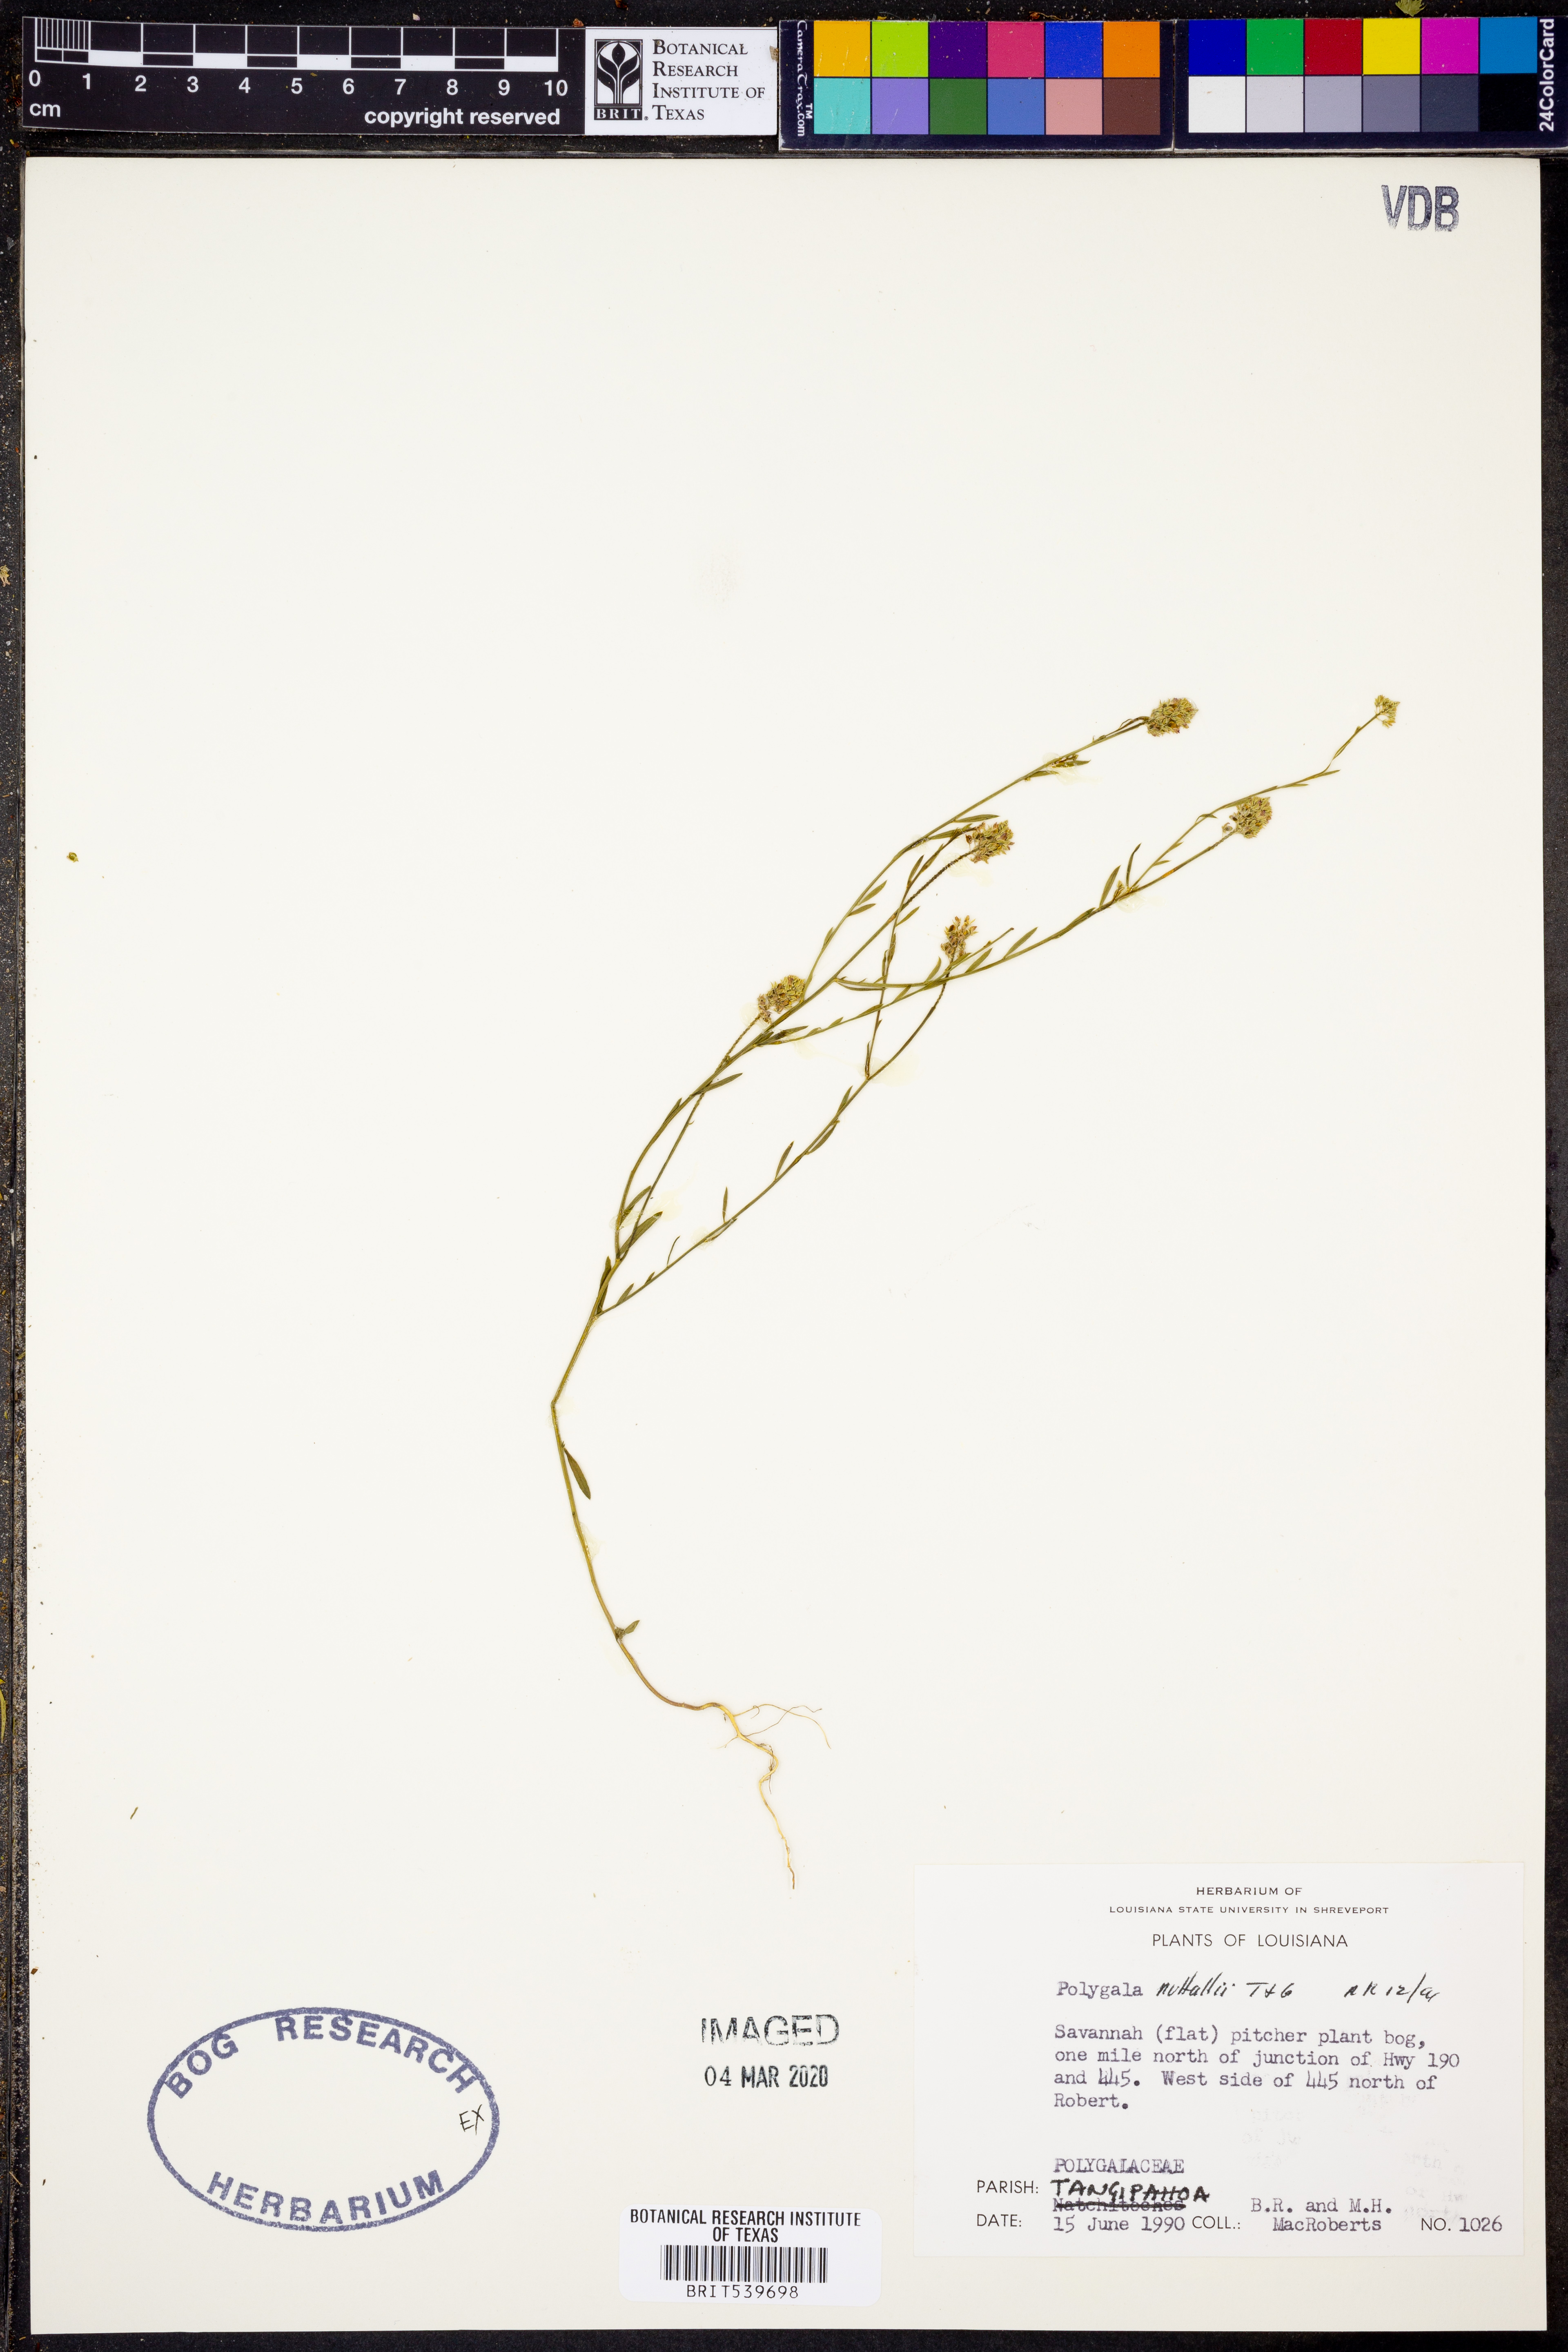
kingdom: Plantae
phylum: Tracheophyta
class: Magnoliopsida
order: Fabales
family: Polygalaceae
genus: Polygala
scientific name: Polygala nuttallii
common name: Nuttall's milkwort
